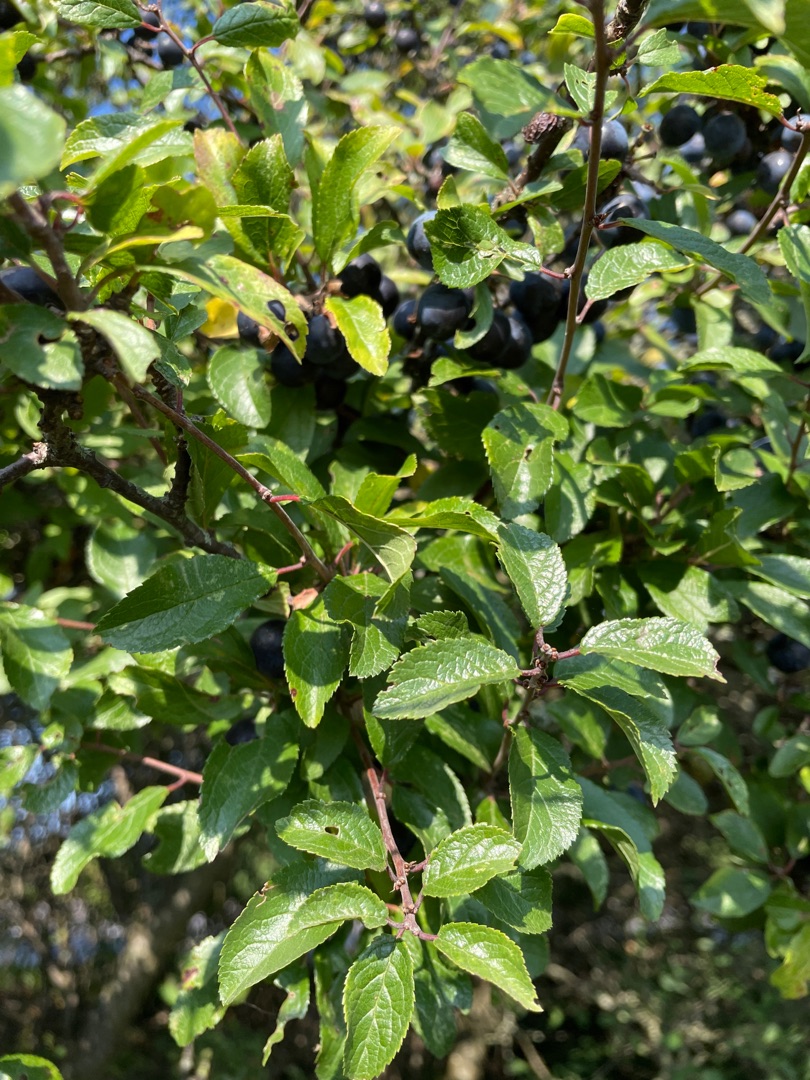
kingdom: Plantae
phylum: Tracheophyta
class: Magnoliopsida
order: Rosales
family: Rosaceae
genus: Prunus
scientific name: Prunus spinosa
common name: Slåen
